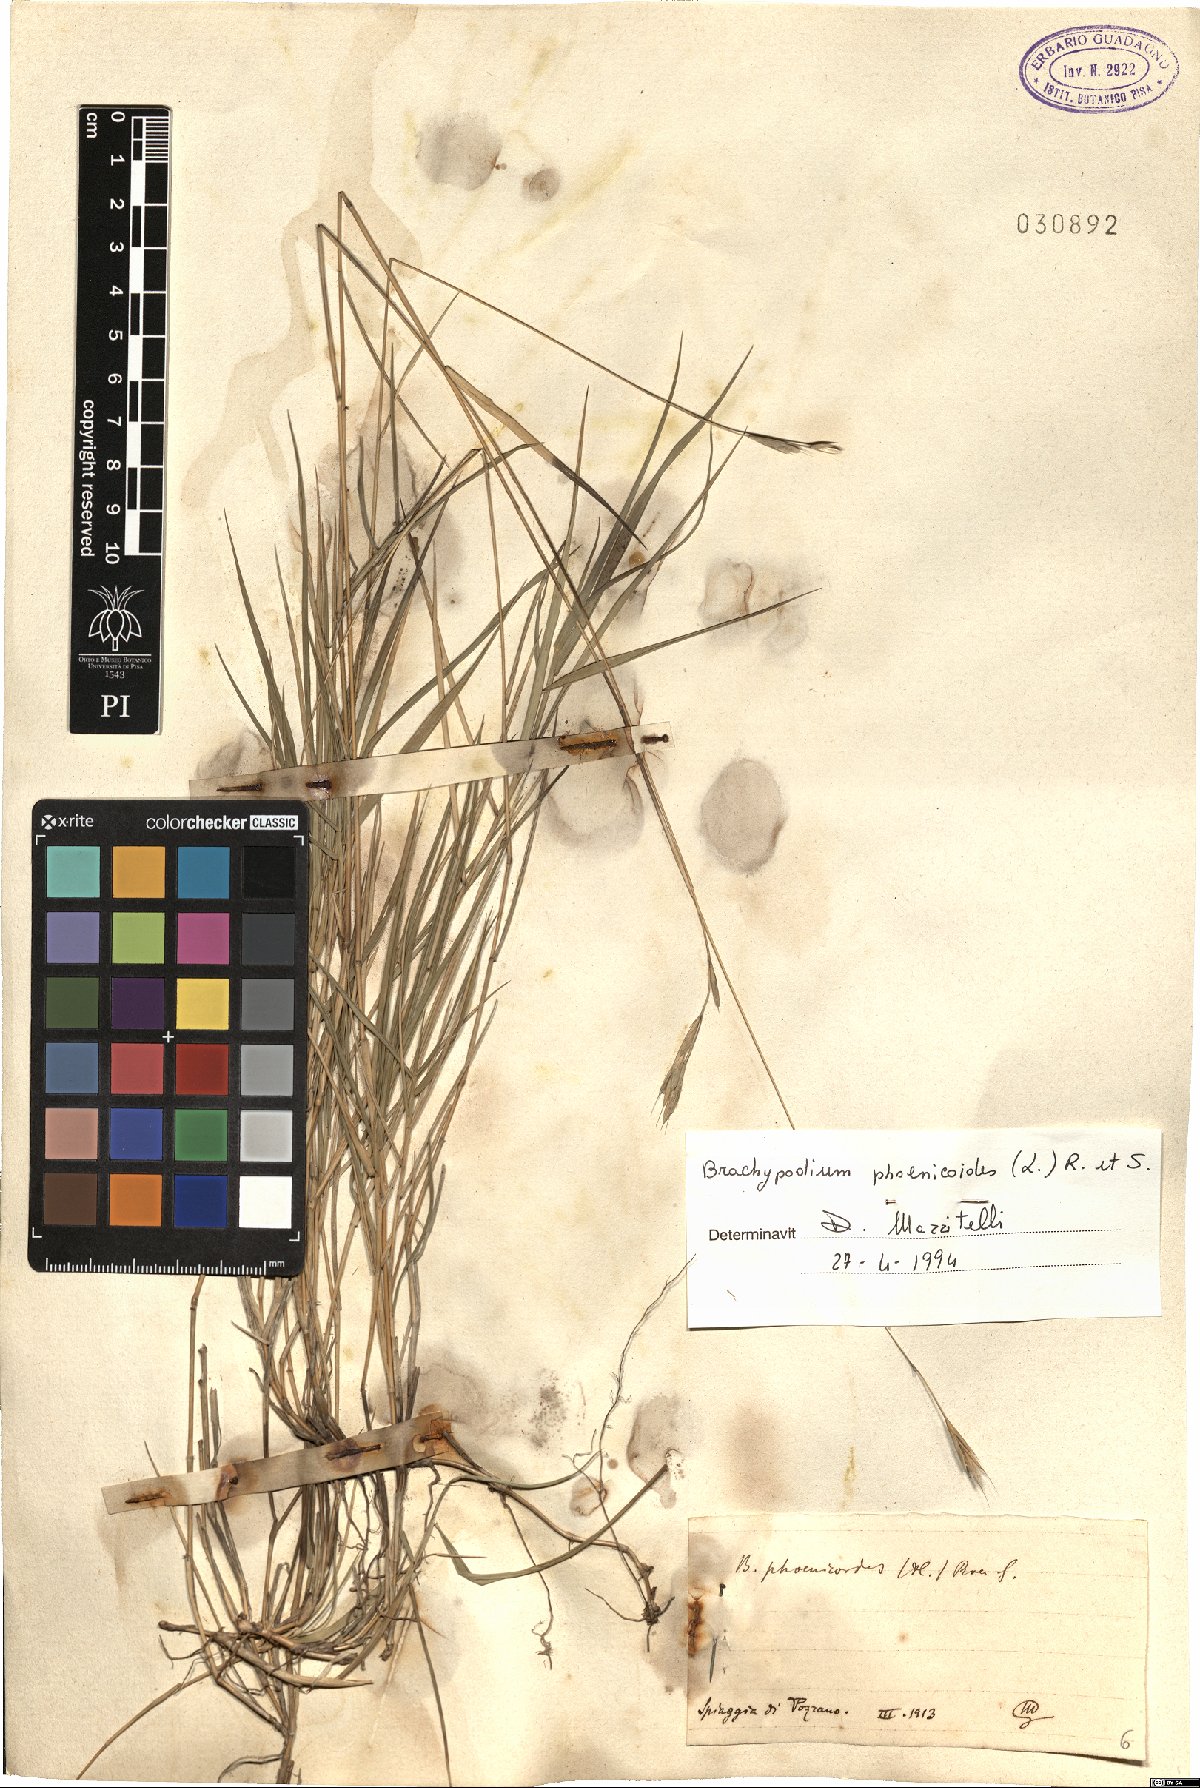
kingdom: Plantae
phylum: Tracheophyta
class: Liliopsida
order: Poales
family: Poaceae
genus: Brachypodium
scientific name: Brachypodium phoenicoides
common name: Thinleaf false brome
